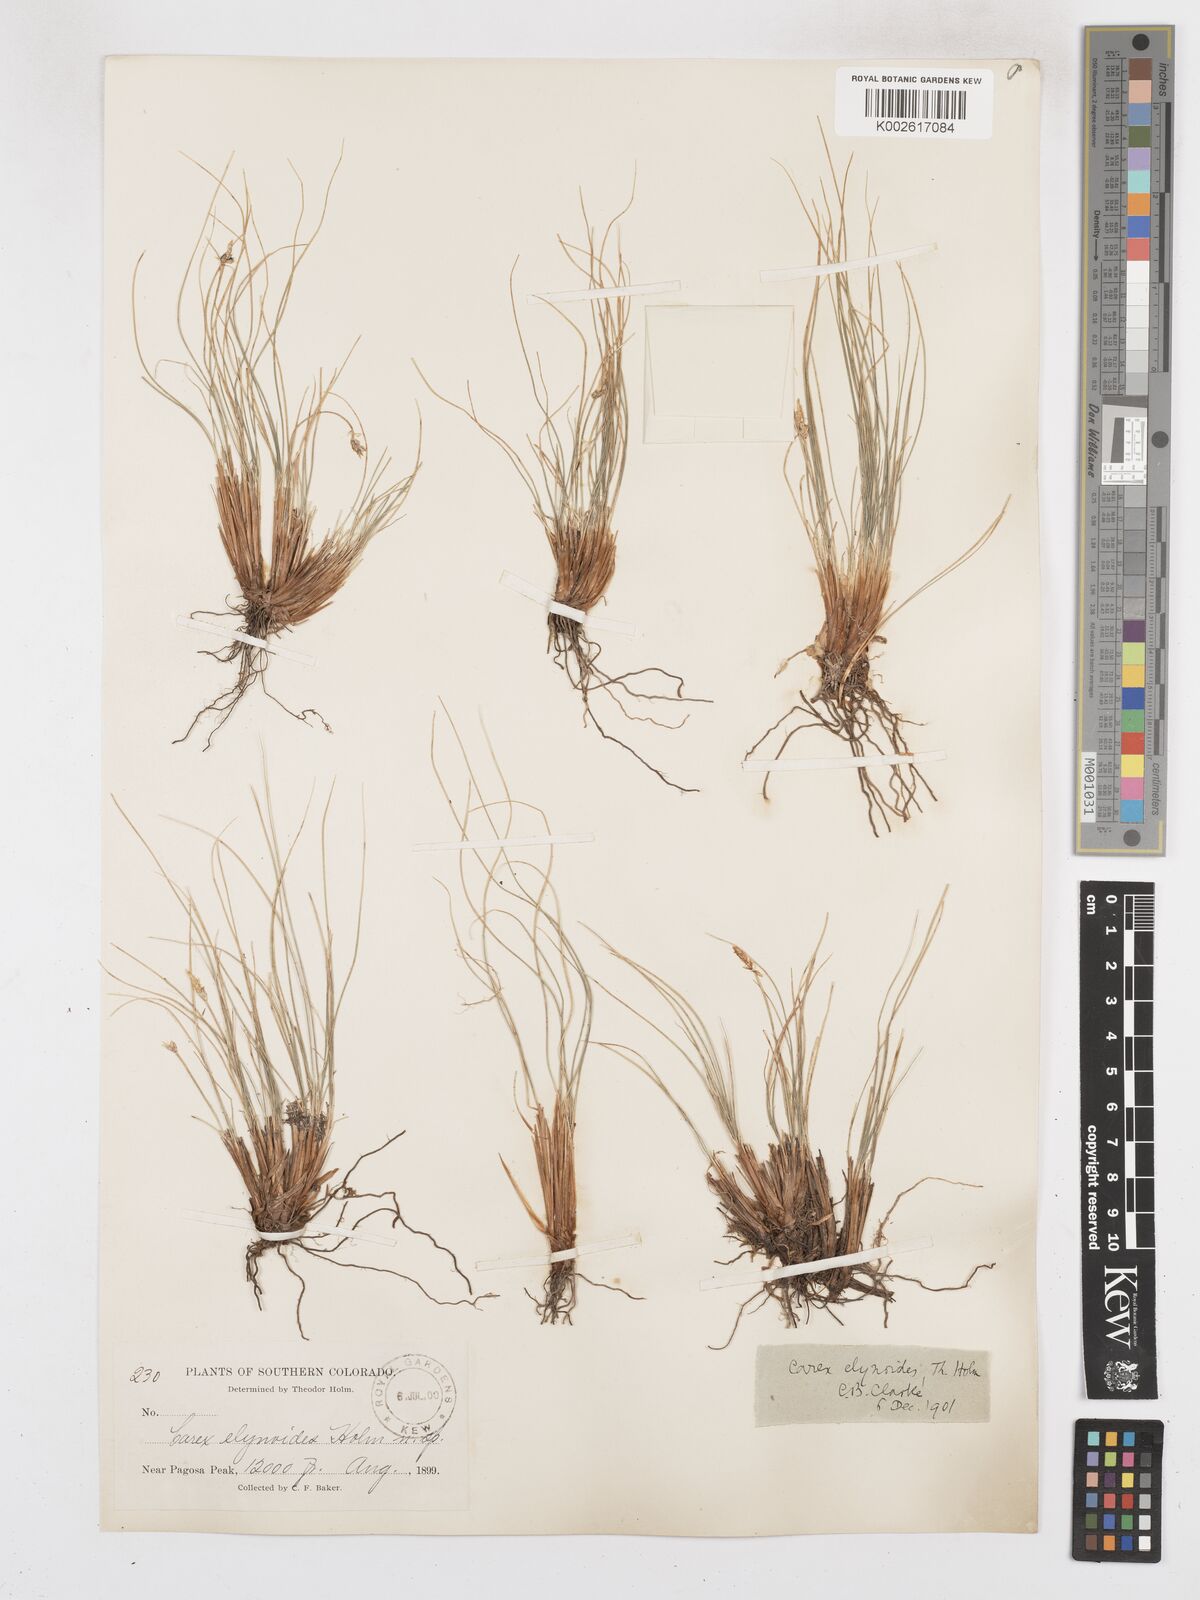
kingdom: Plantae
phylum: Tracheophyta
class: Liliopsida
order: Poales
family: Cyperaceae
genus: Carex
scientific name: Carex elynoides
